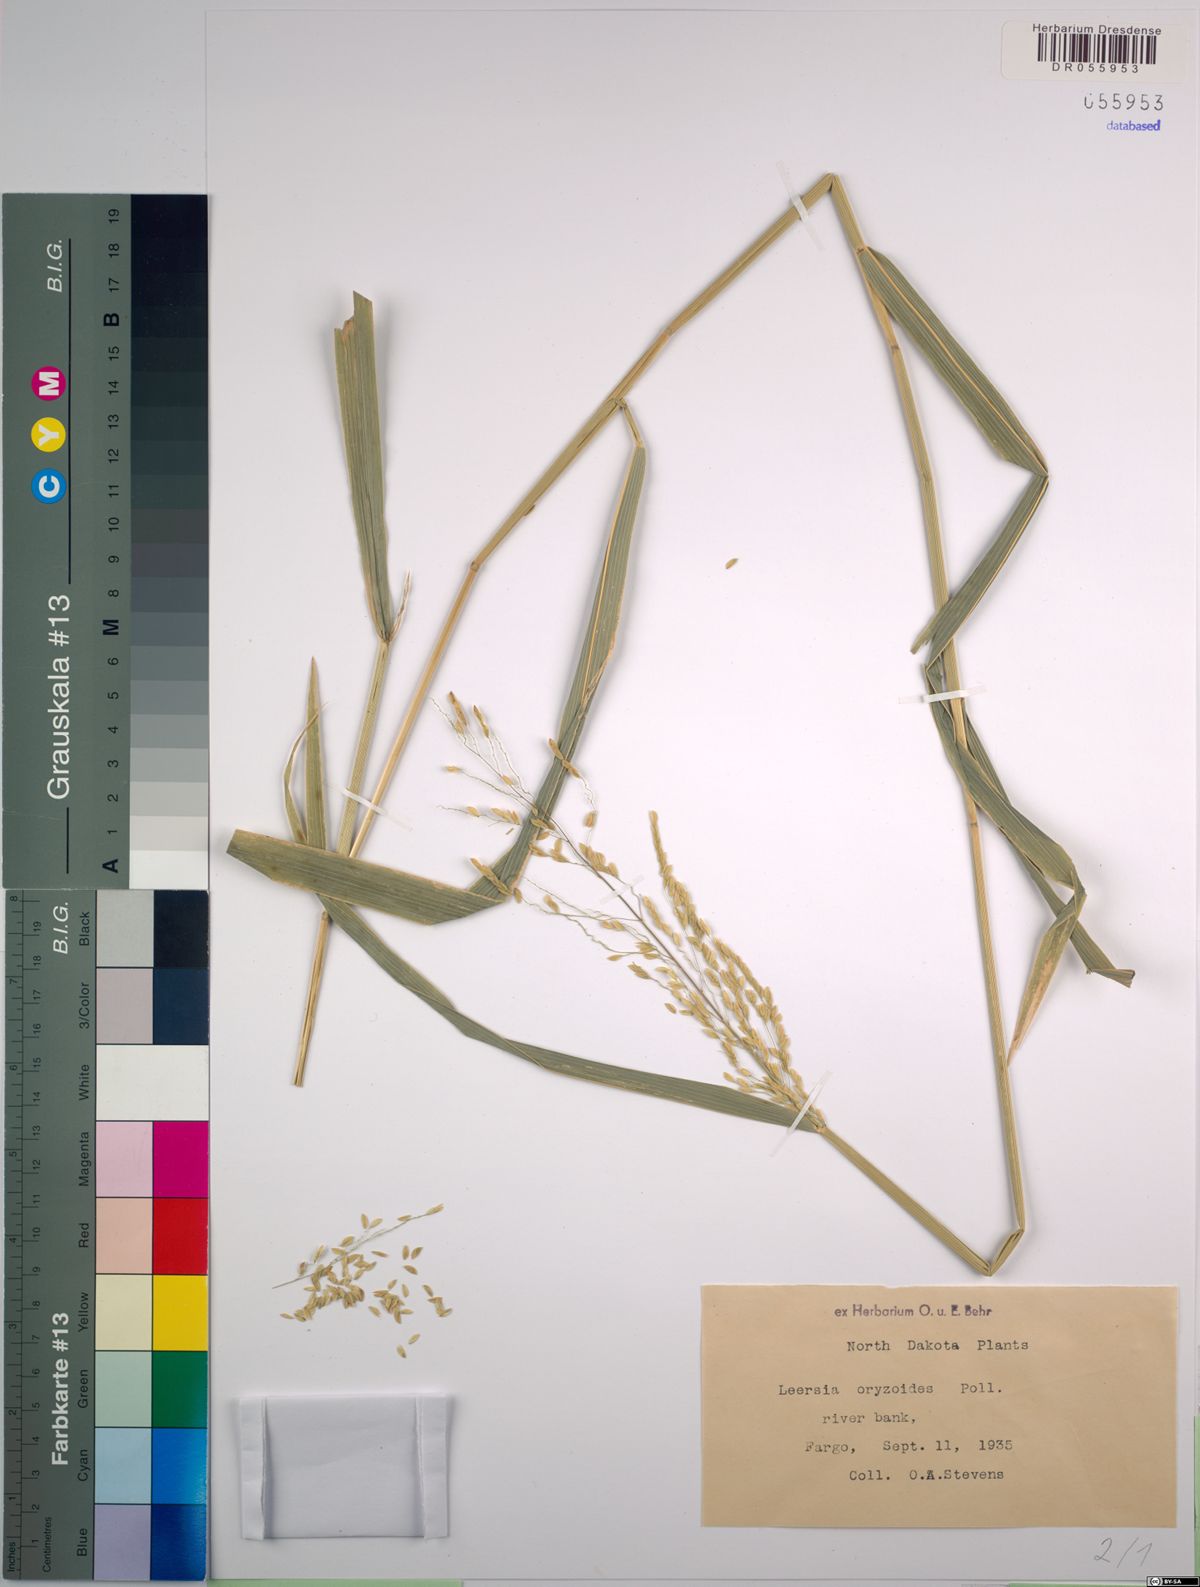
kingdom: Plantae
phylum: Tracheophyta
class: Liliopsida
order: Poales
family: Poaceae
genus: Leersia
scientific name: Leersia oryzoides
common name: Cut-grass
